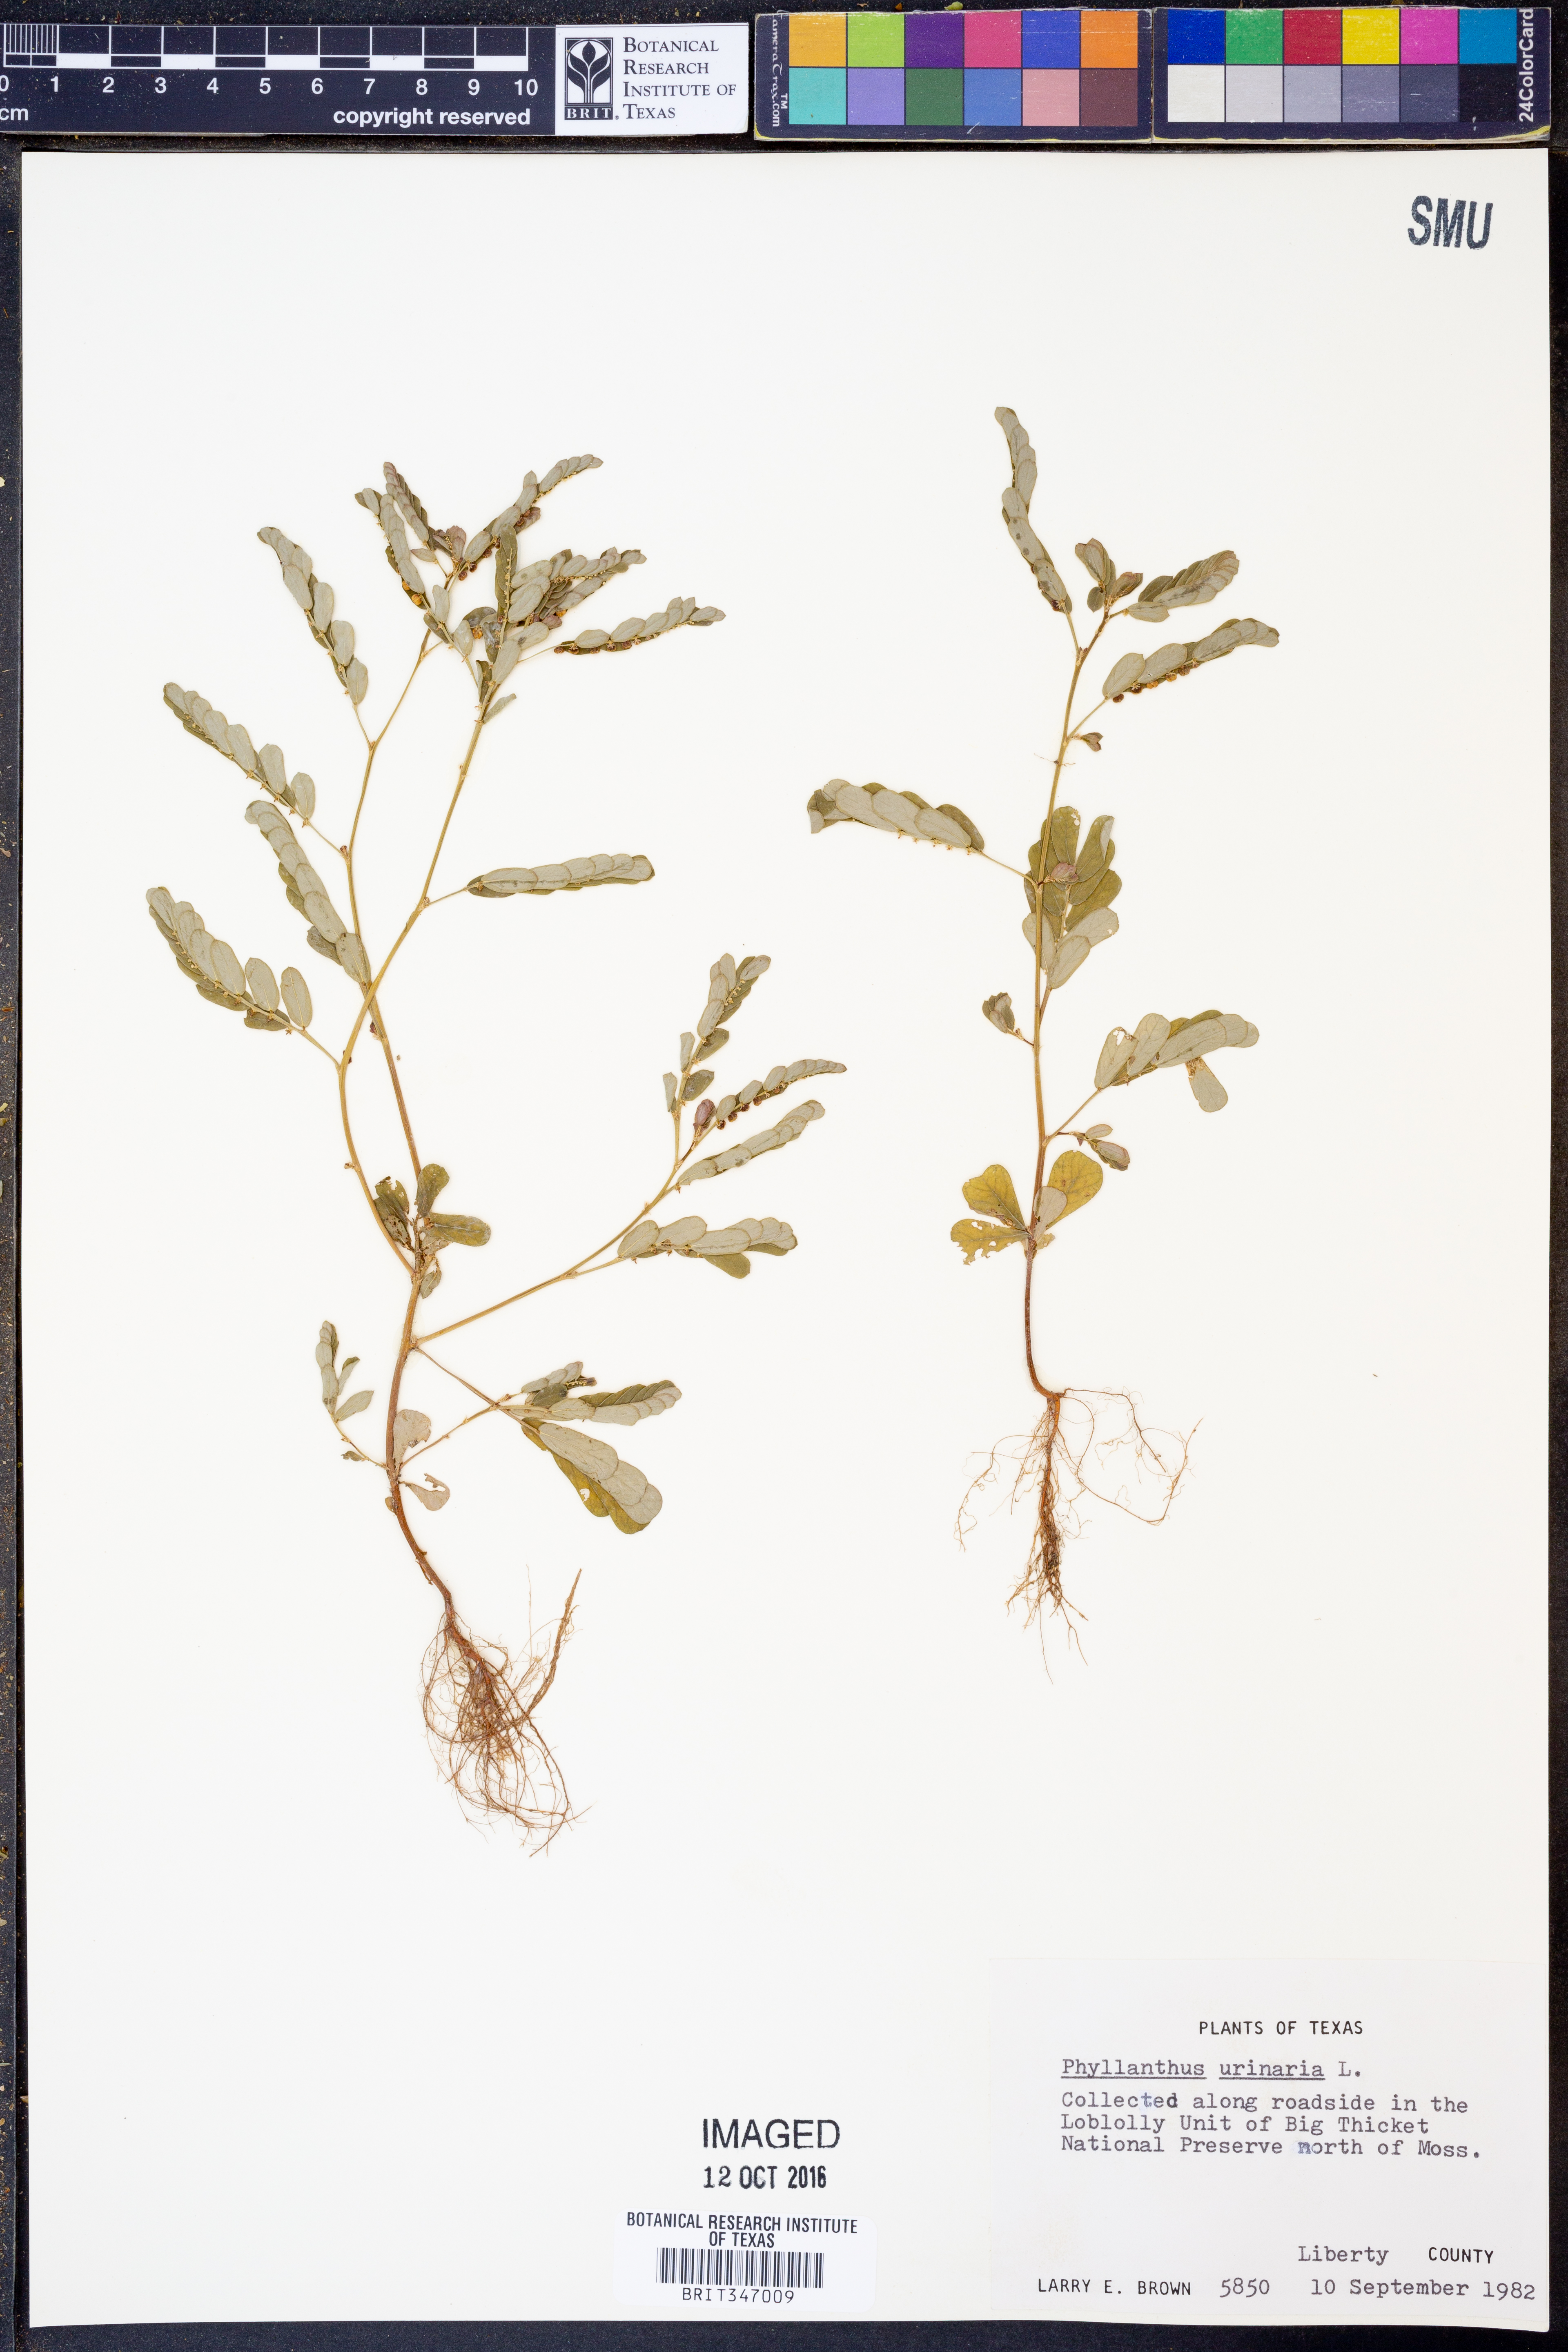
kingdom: Plantae
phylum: Tracheophyta
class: Magnoliopsida
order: Malpighiales
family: Phyllanthaceae
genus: Phyllanthus
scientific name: Phyllanthus urinaria
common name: Chamber bitter
